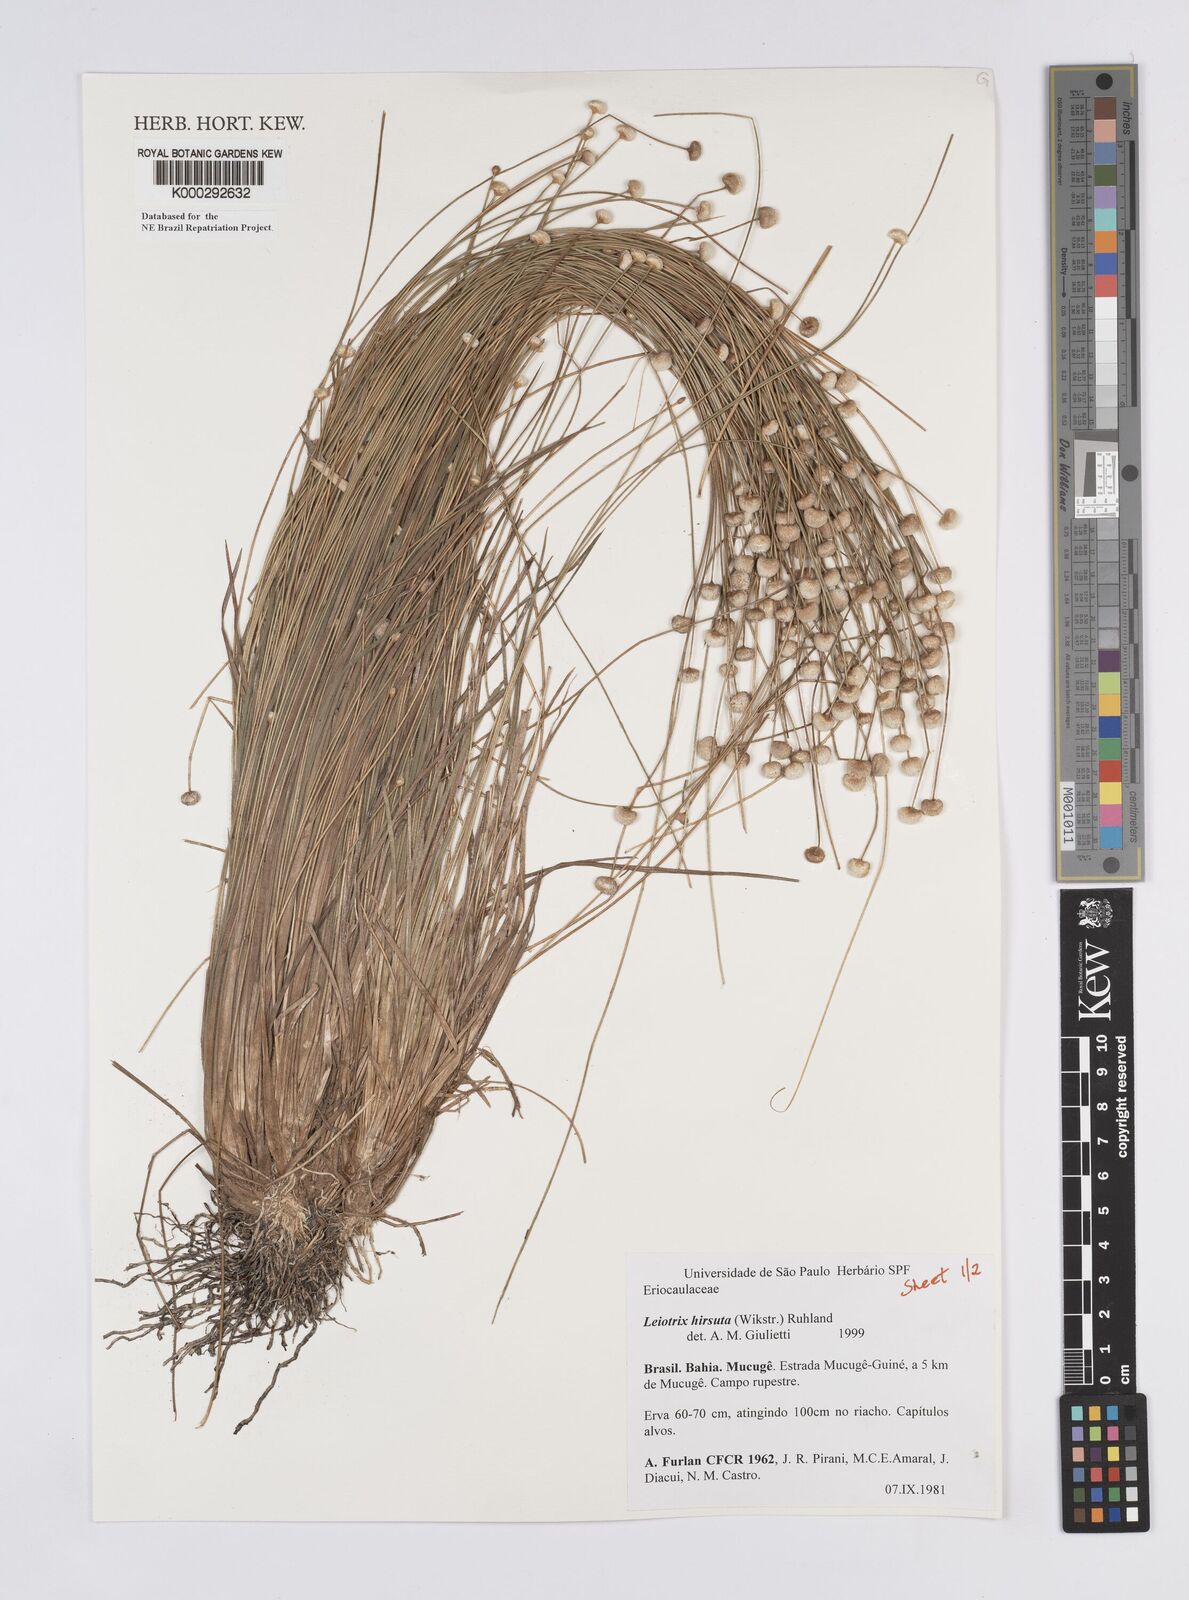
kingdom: Plantae
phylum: Tracheophyta
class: Liliopsida
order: Poales
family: Eriocaulaceae
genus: Leiothrix
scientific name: Leiothrix hirsuta
